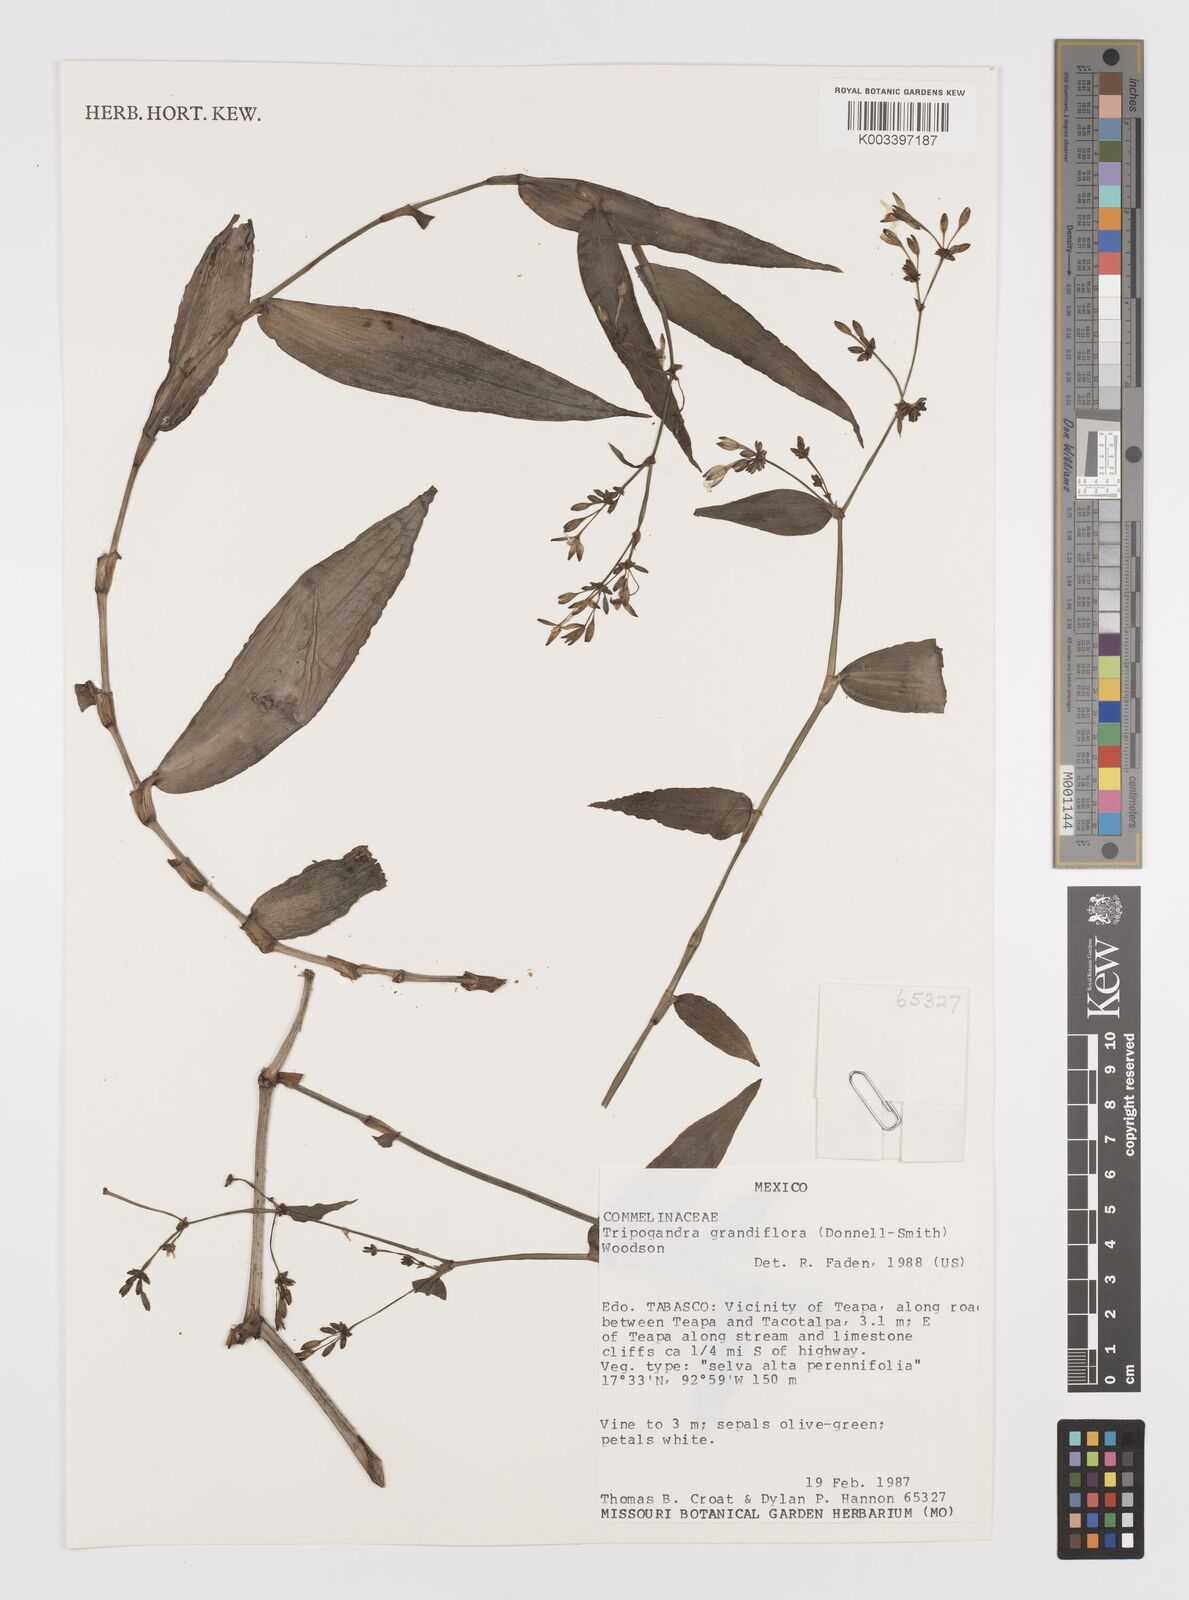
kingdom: Plantae
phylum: Tracheophyta
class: Liliopsida
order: Commelinales
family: Commelinaceae
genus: Callisia
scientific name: Callisia grandiflora
